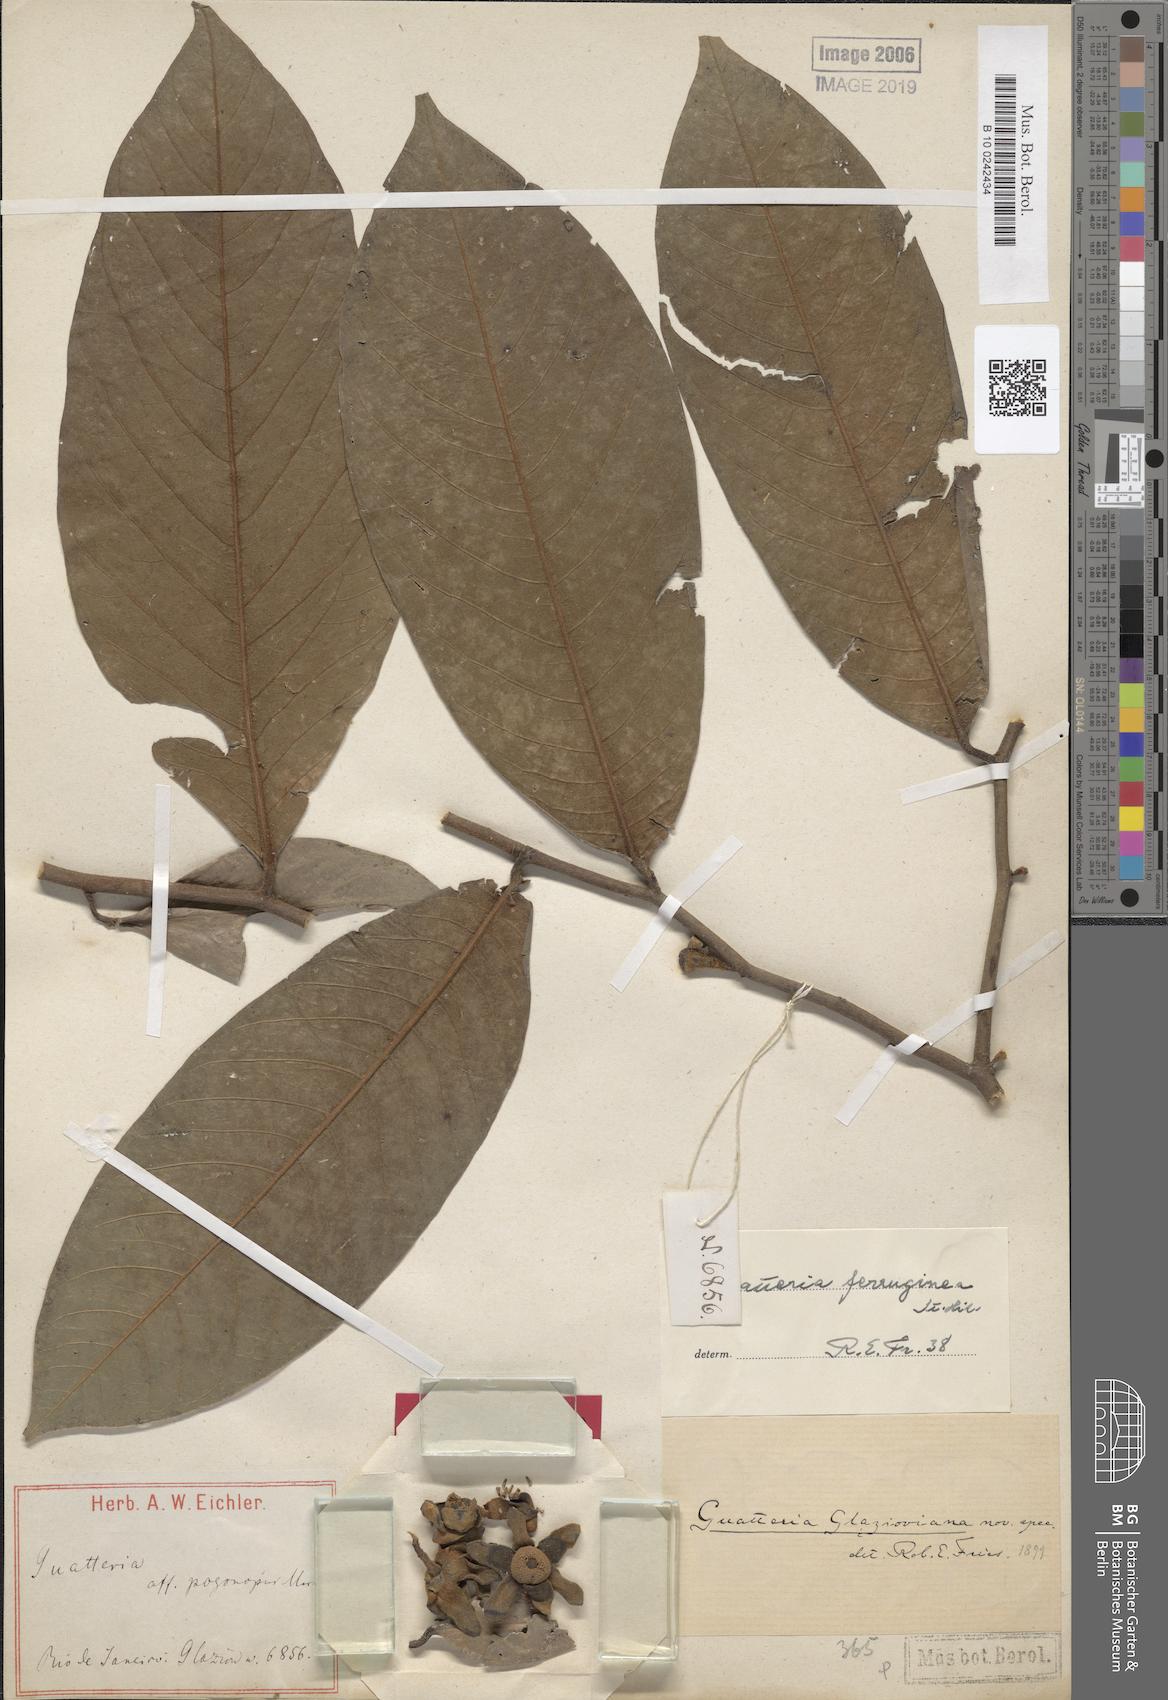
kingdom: Plantae
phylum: Tracheophyta
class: Magnoliopsida
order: Magnoliales
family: Annonaceae
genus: Guatteria
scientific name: Guatteria ferruginea
